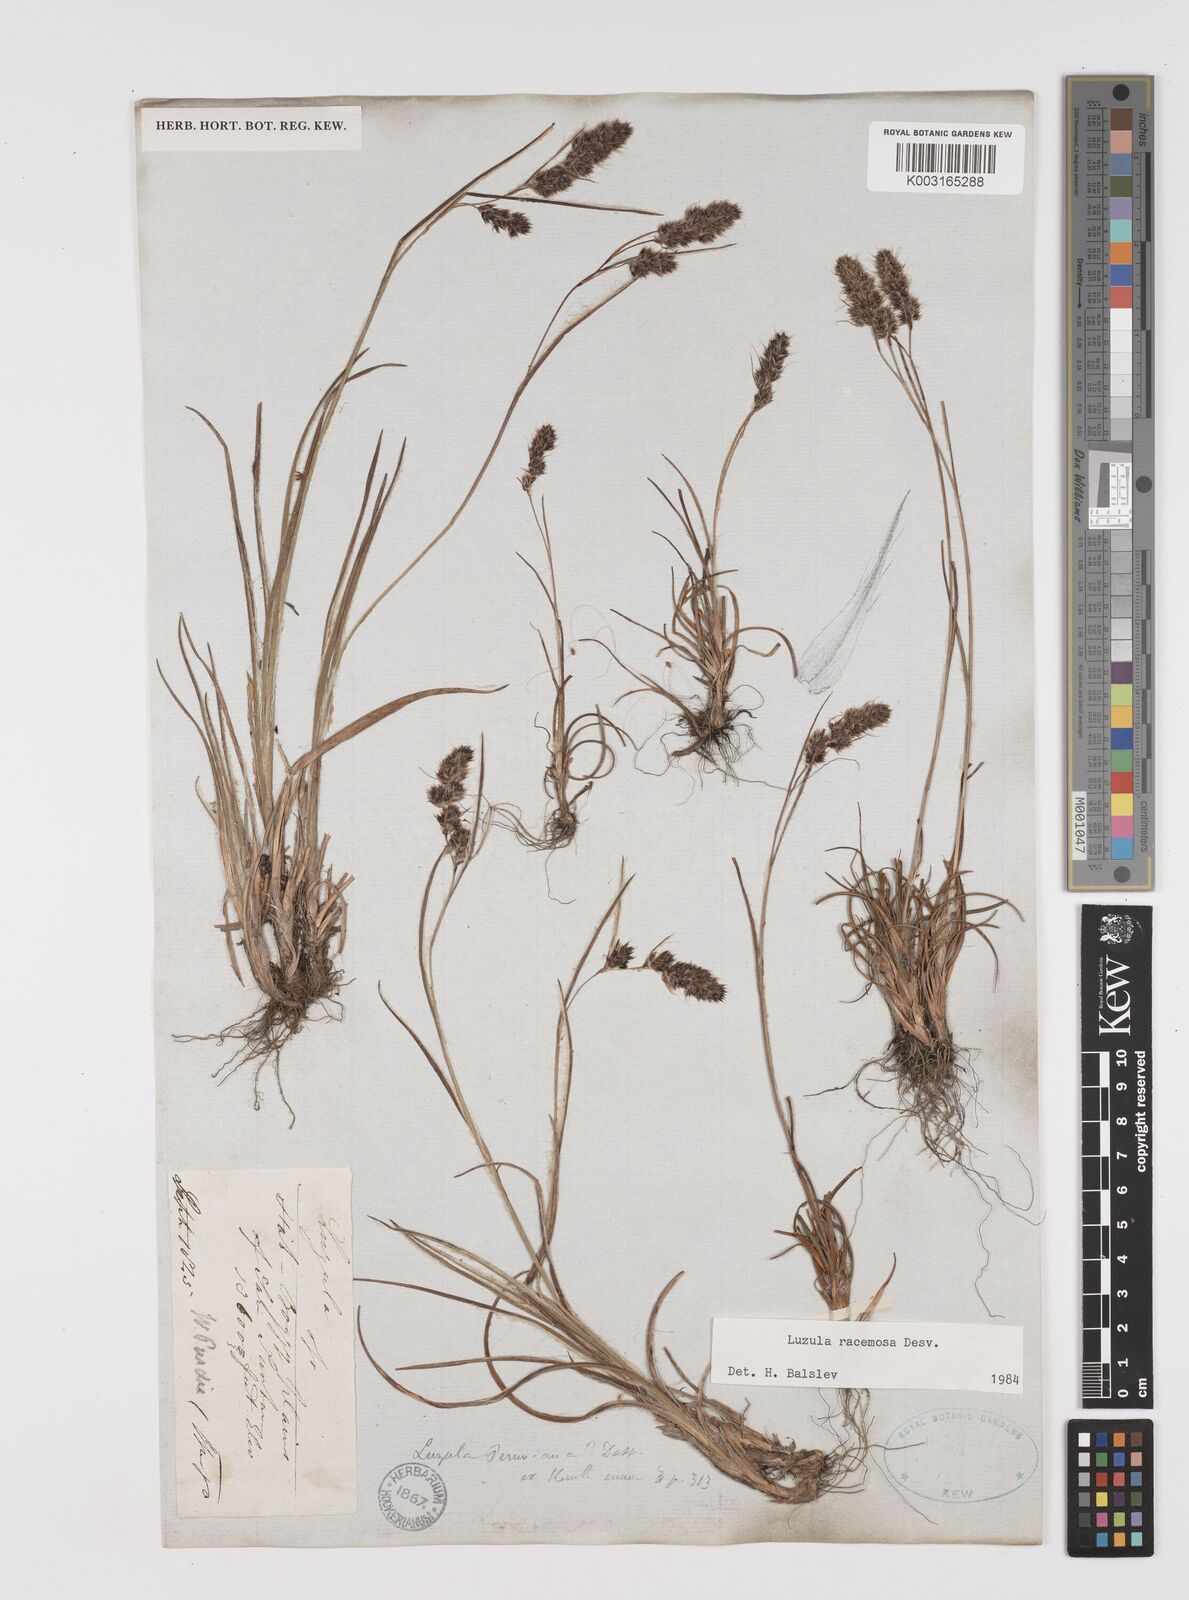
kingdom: Plantae
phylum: Tracheophyta
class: Liliopsida
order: Poales
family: Juncaceae
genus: Luzula
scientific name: Luzula racemosa
